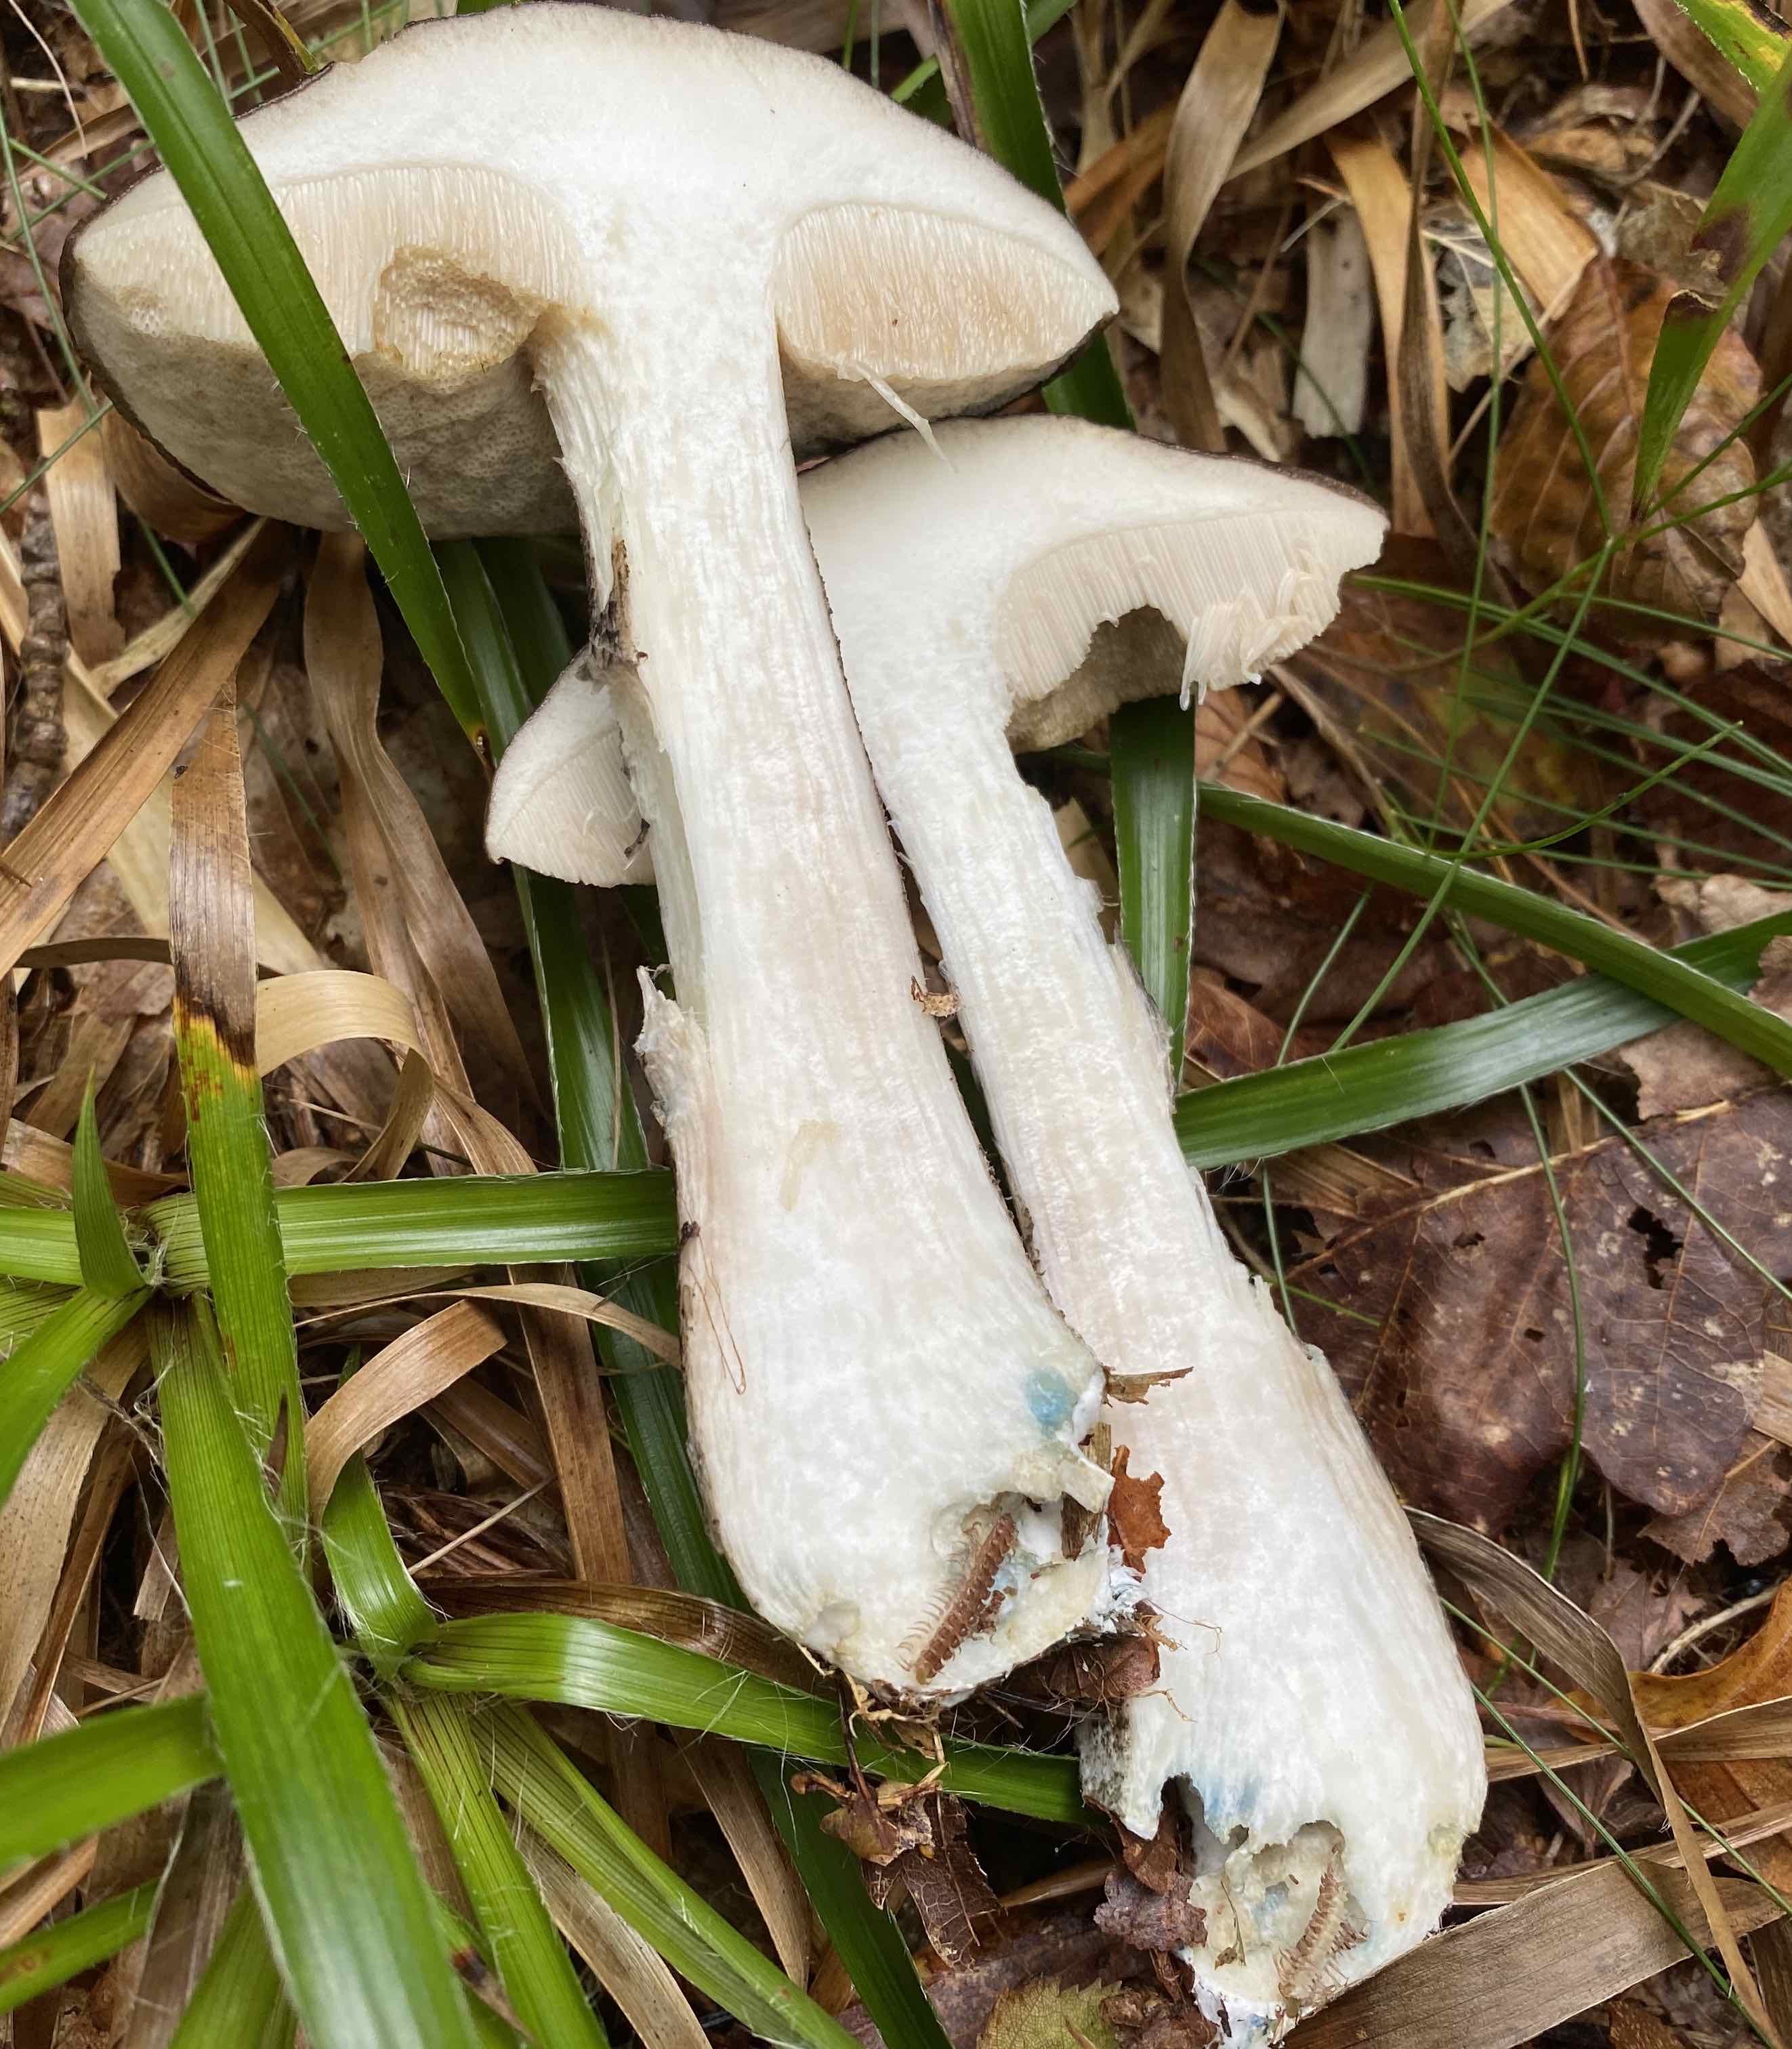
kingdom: Fungi
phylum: Basidiomycota
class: Agaricomycetes
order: Boletales
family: Boletaceae
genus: Leccinum
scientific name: Leccinum variicolor
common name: flammet skælrørhat
